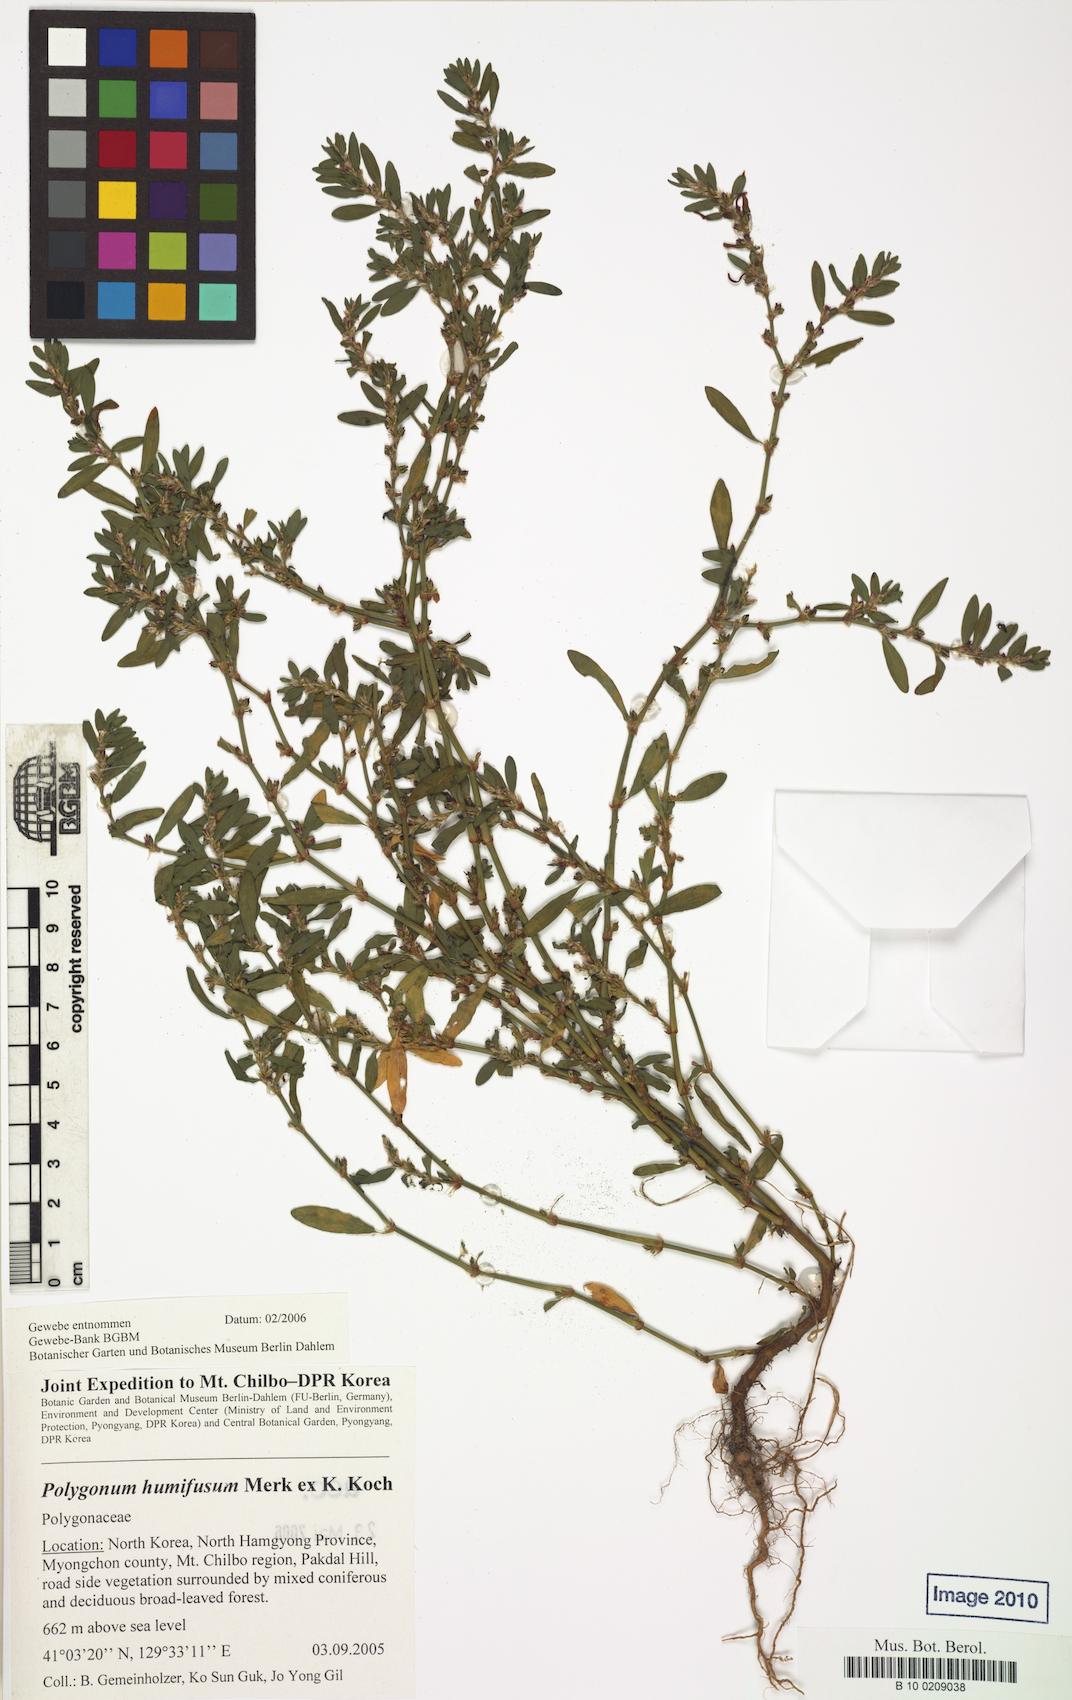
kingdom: Plantae
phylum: Tracheophyta
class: Magnoliopsida
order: Caryophyllales
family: Polygonaceae
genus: Polygonum
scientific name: Polygonum humifusum
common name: Alaska knotweed
